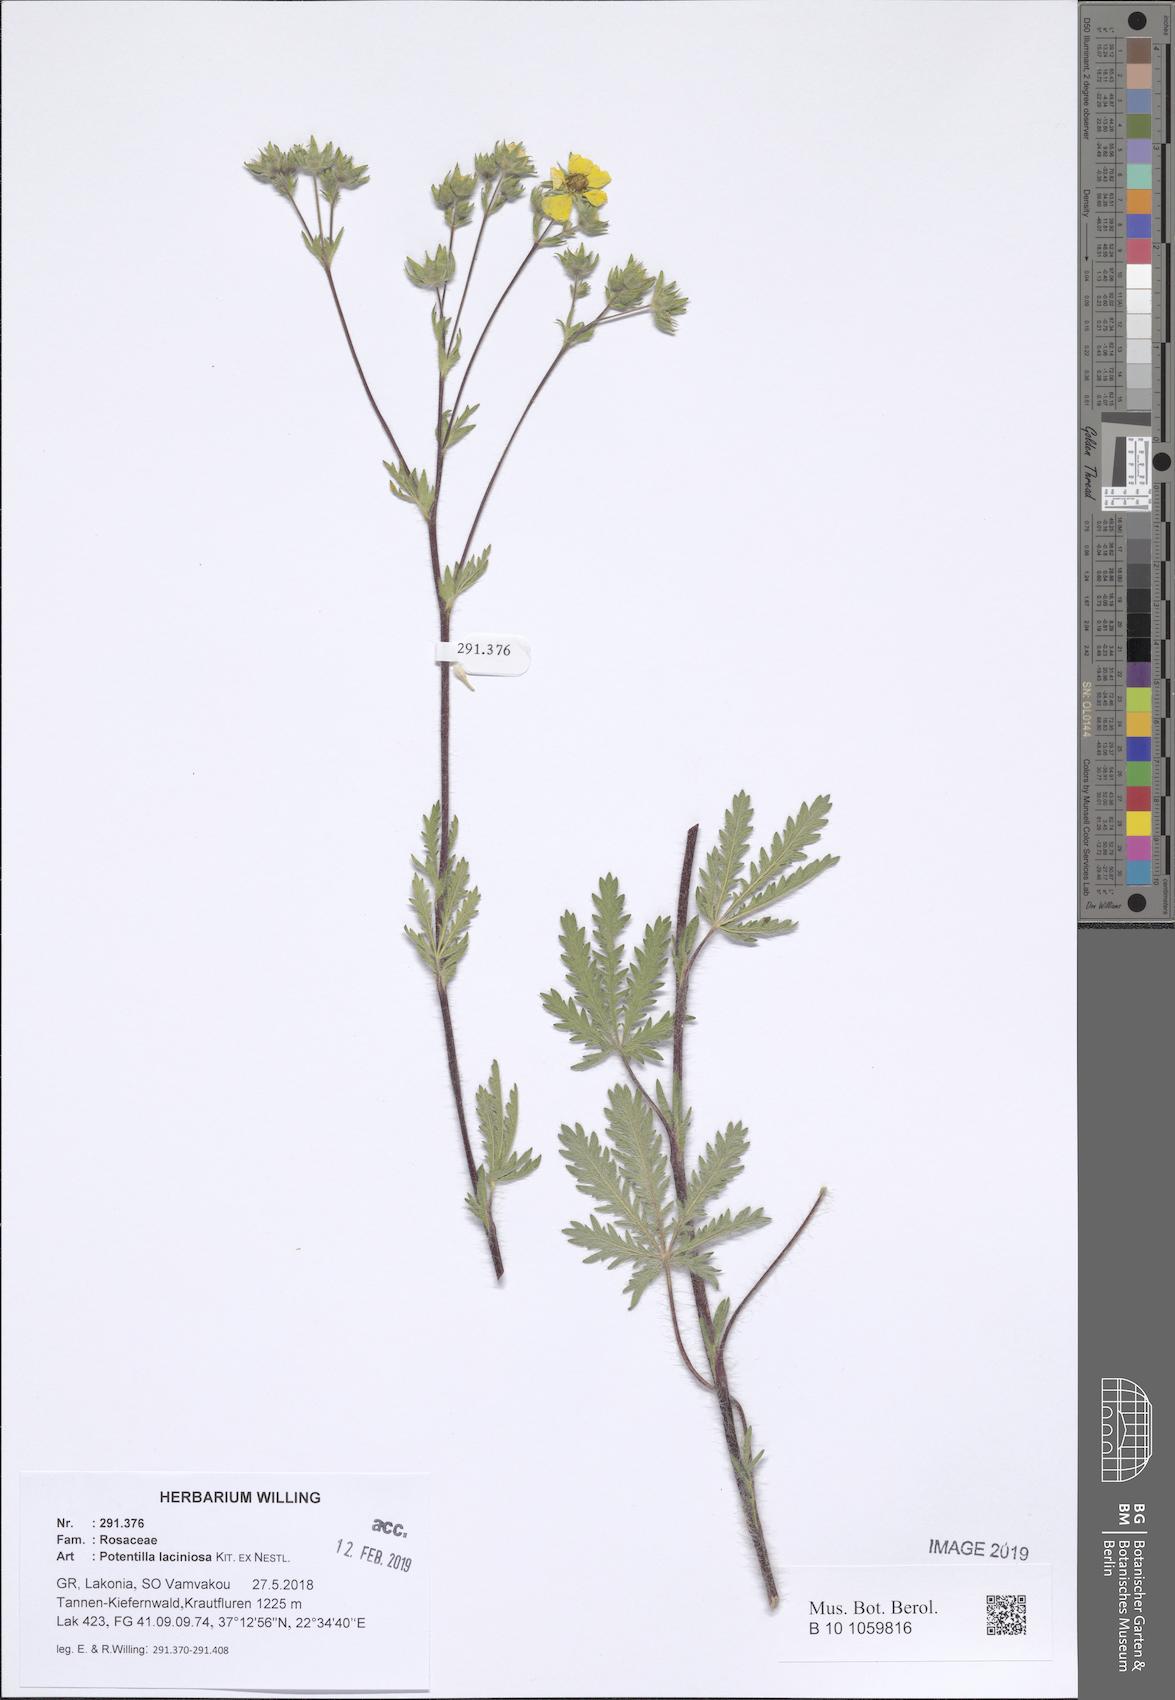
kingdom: Plantae
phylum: Tracheophyta
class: Magnoliopsida
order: Rosales
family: Rosaceae
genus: Potentilla
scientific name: Potentilla recta
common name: Sulphur cinquefoil
